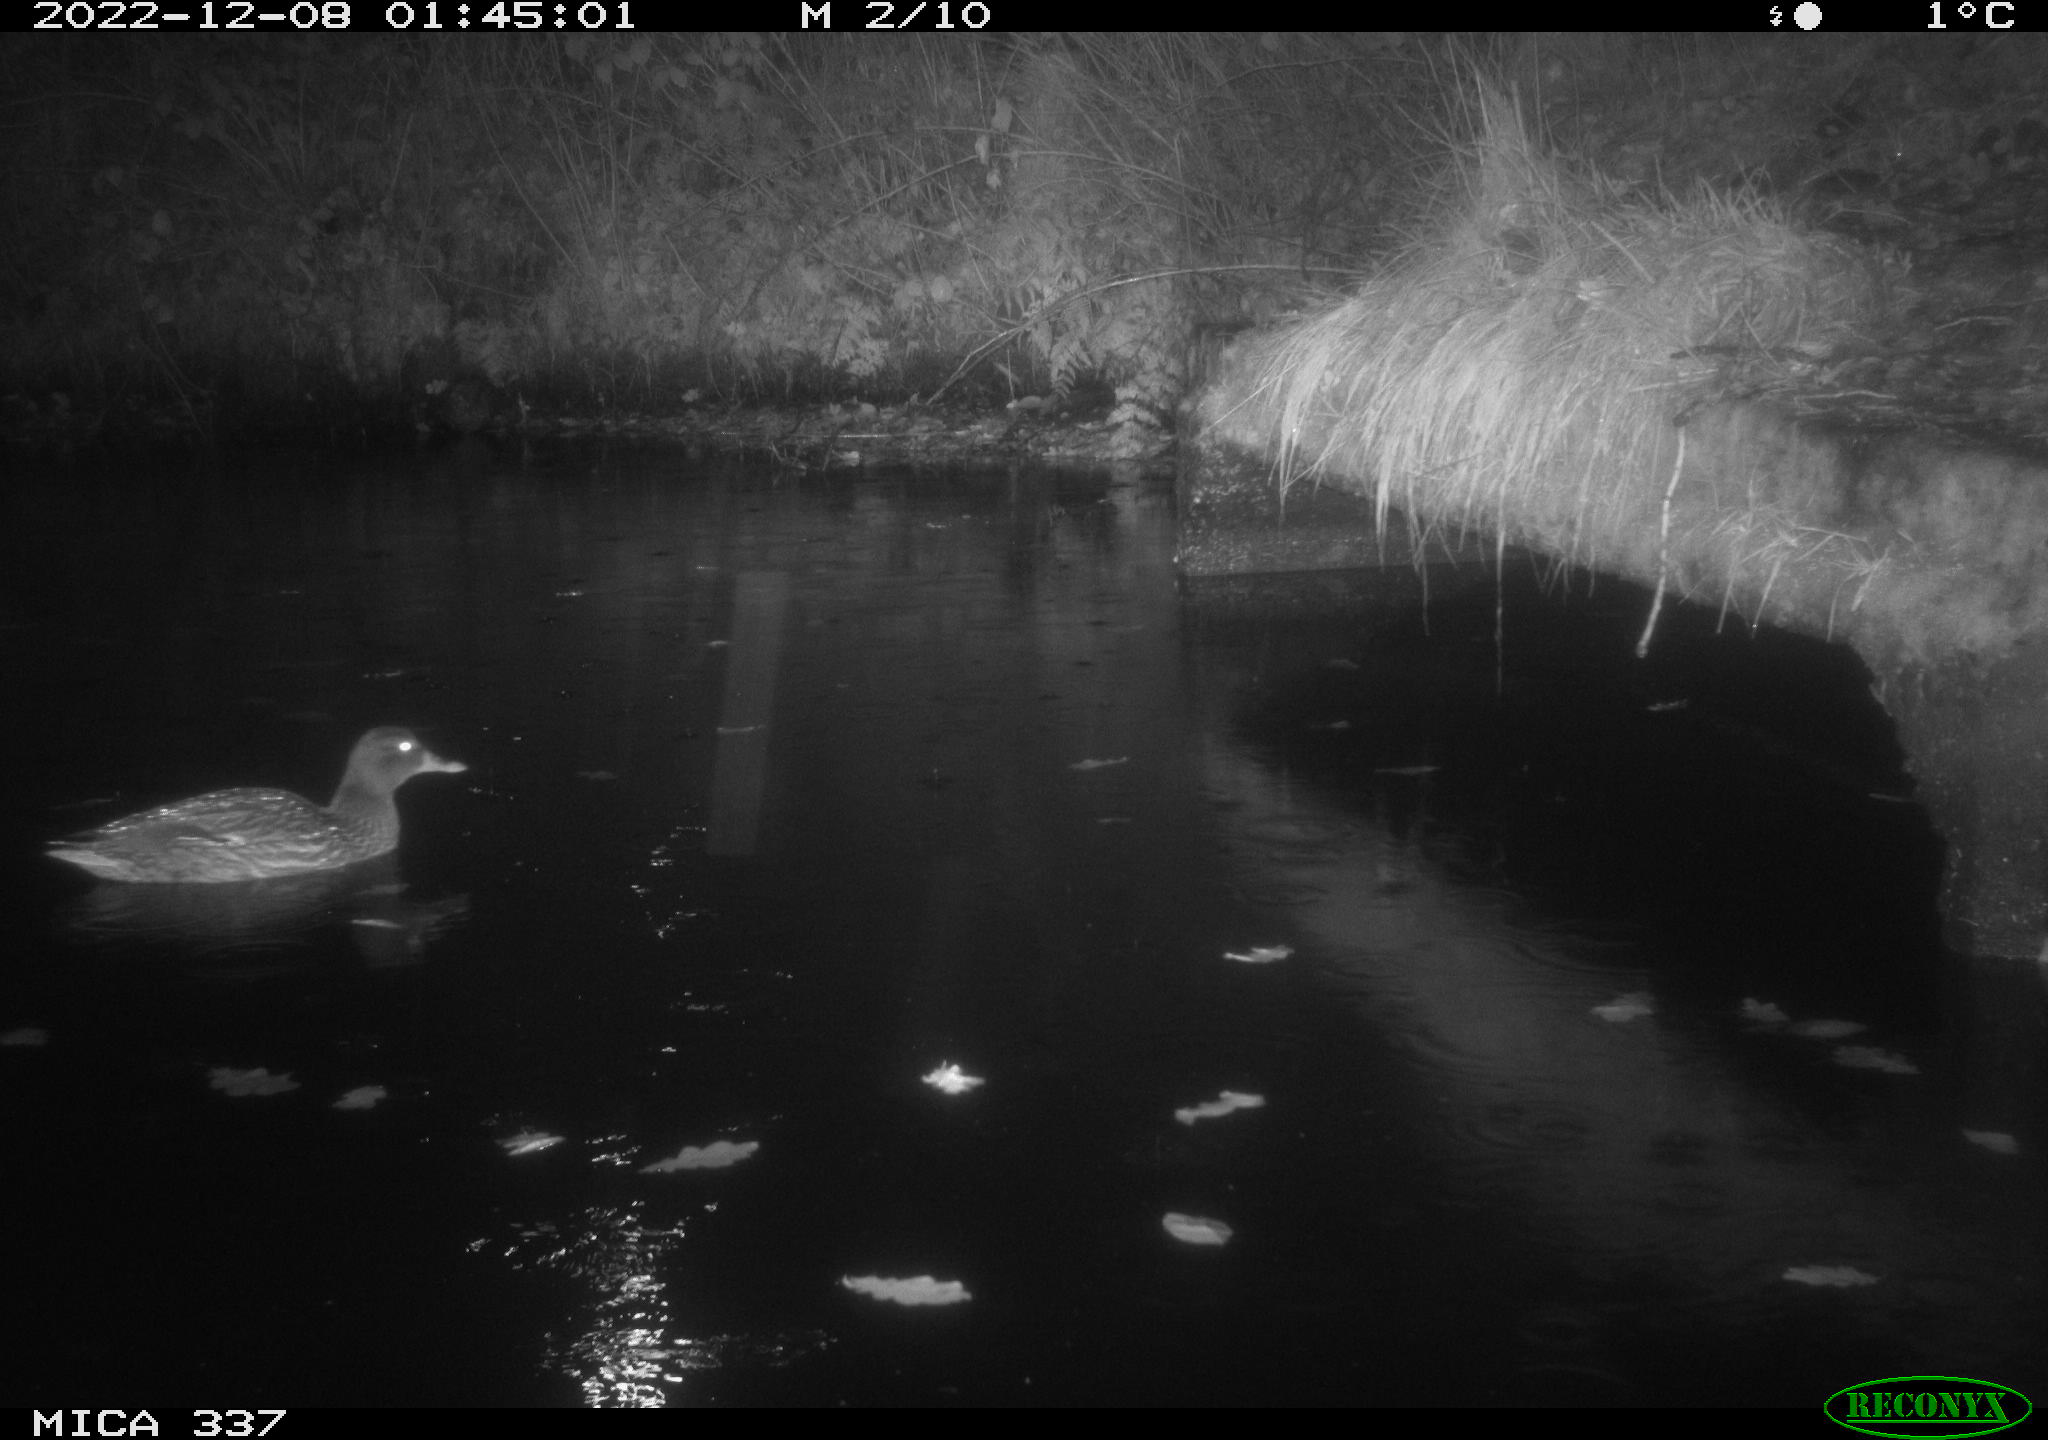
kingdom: Animalia
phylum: Chordata
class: Aves
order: Anseriformes
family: Anatidae
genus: Anas
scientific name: Anas
